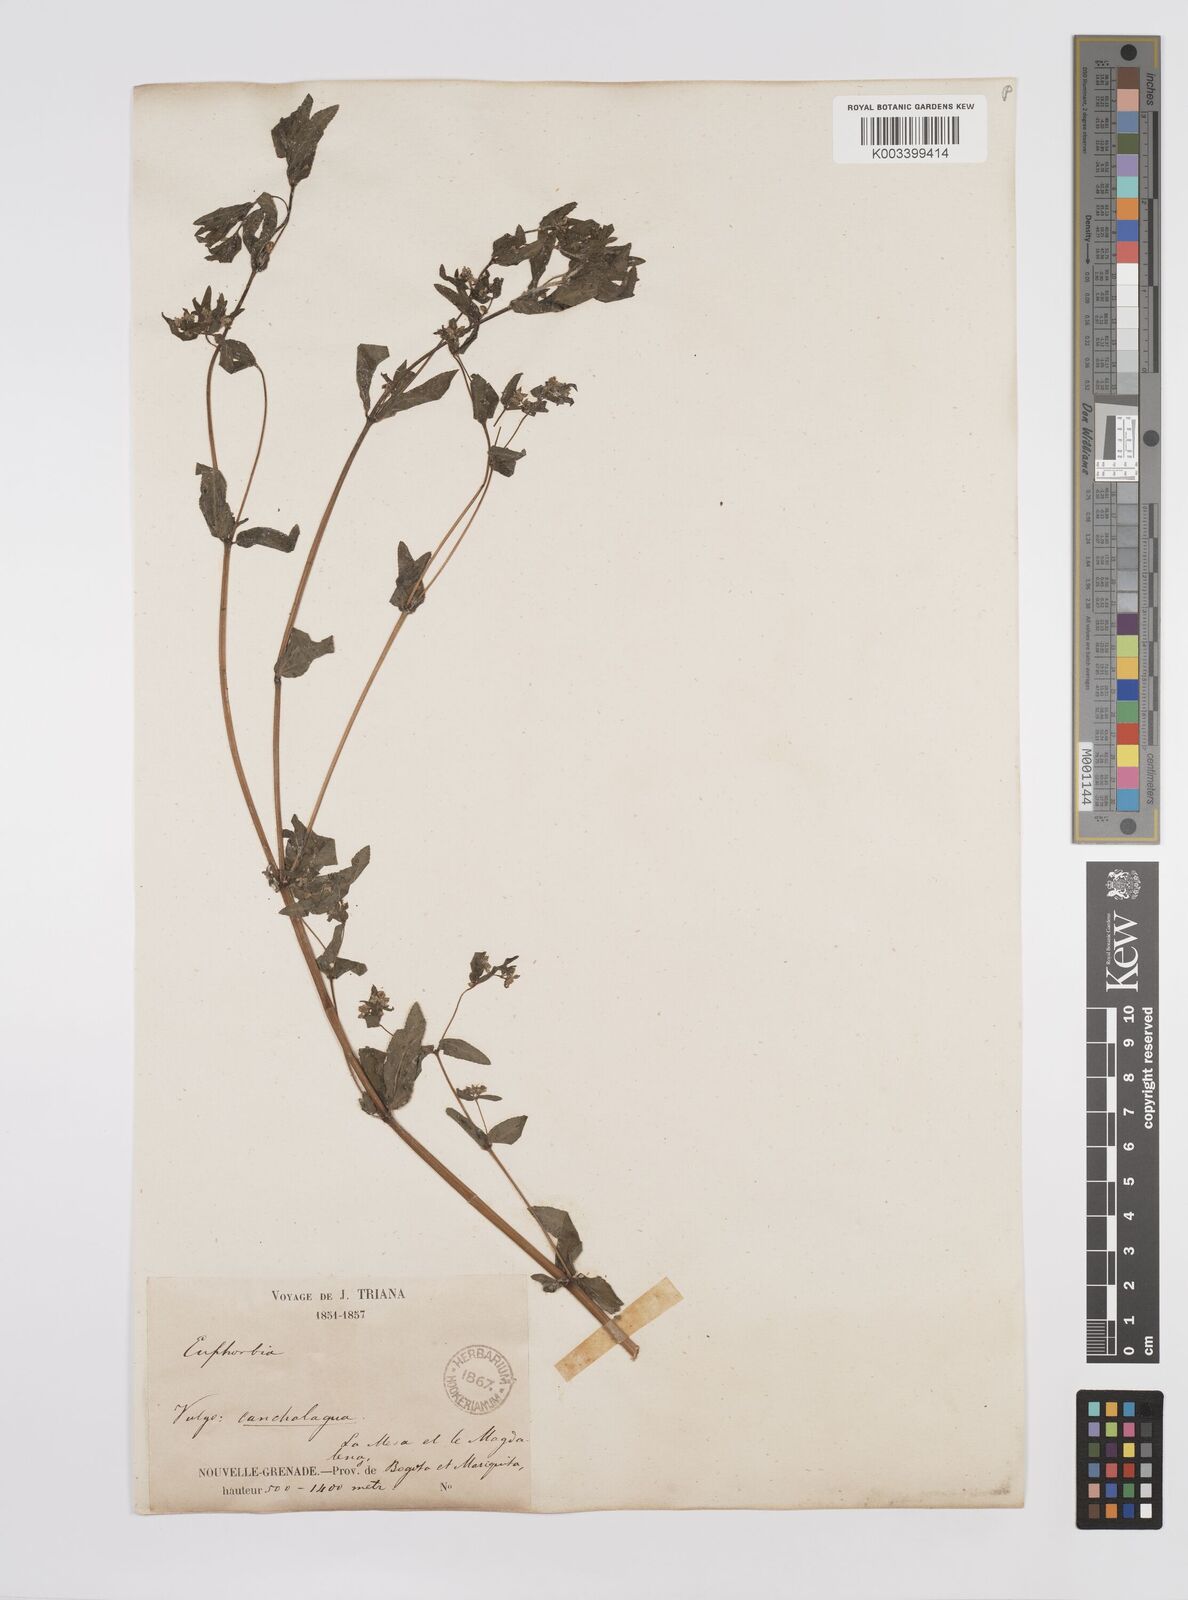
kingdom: Plantae
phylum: Tracheophyta
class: Magnoliopsida
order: Malpighiales
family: Euphorbiaceae
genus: Euphorbia
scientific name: Euphorbia
